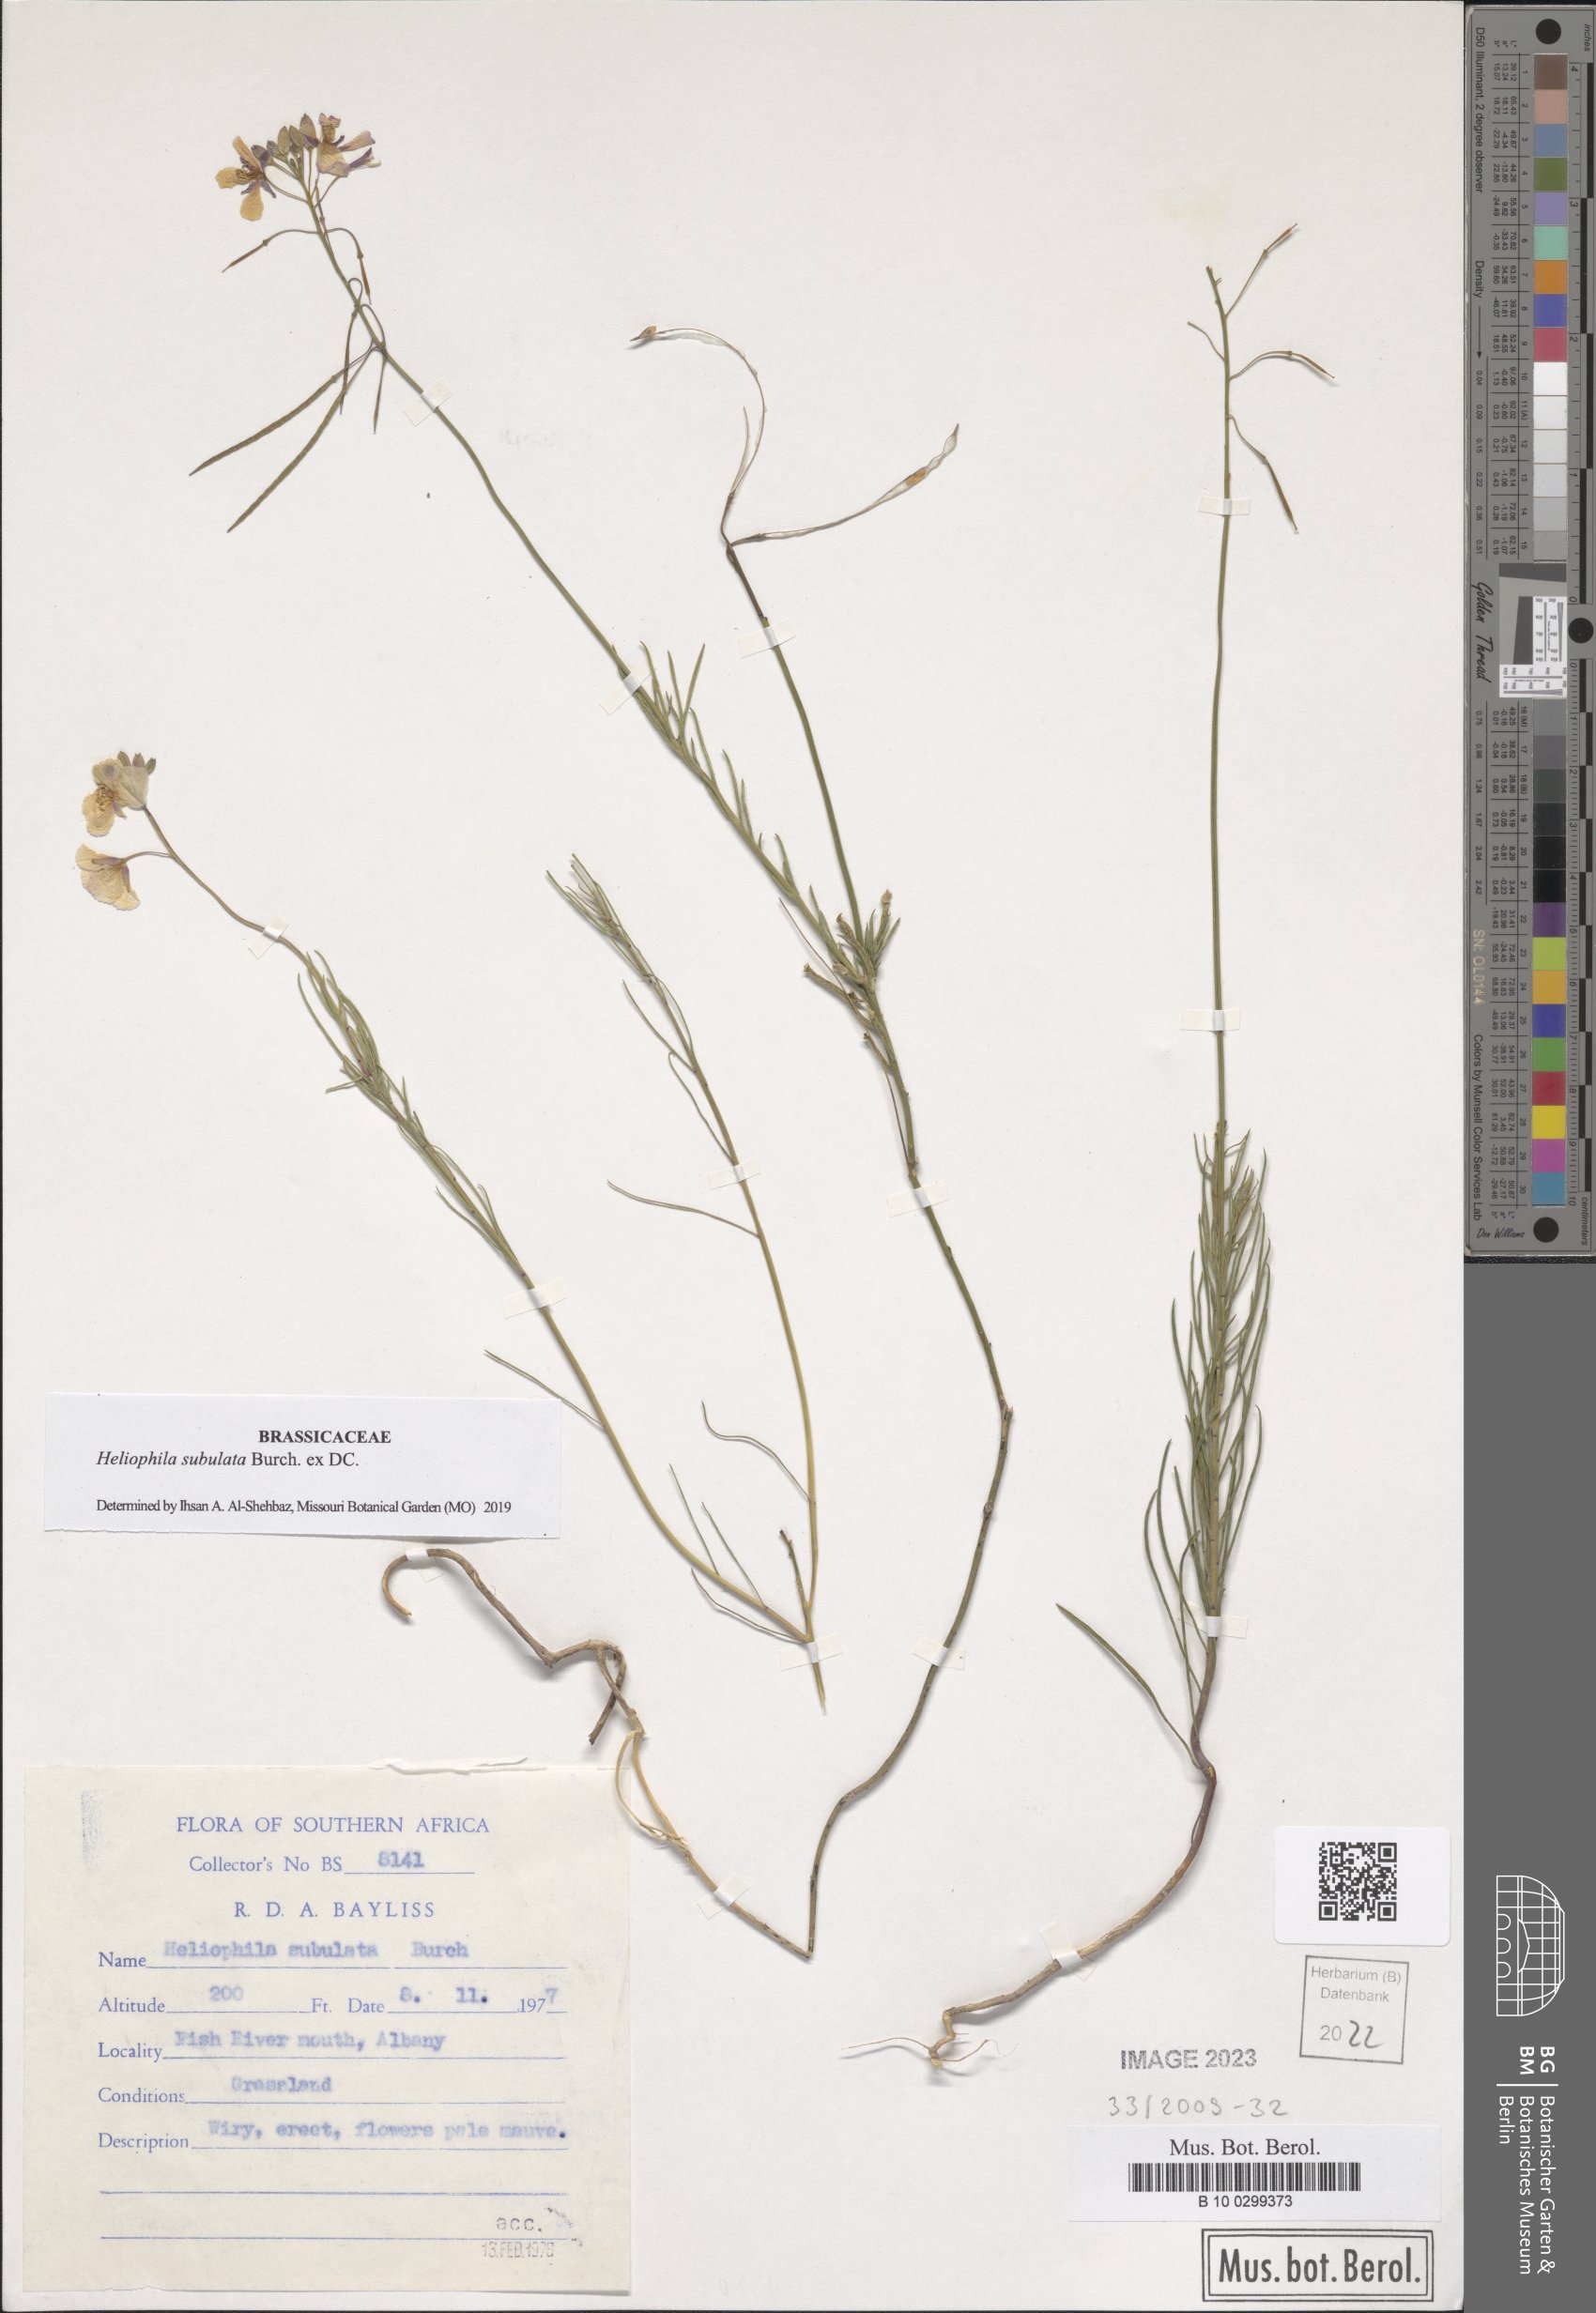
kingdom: Plantae
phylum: Tracheophyta
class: Magnoliopsida
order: Brassicales
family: Brassicaceae
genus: Heliophila
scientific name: Heliophila subulata
